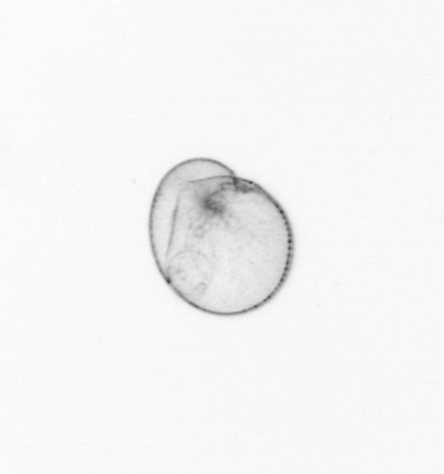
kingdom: Chromista
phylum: Myzozoa
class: Dinophyceae
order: Noctilucales
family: Noctilucaceae
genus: Noctiluca
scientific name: Noctiluca scintillans
